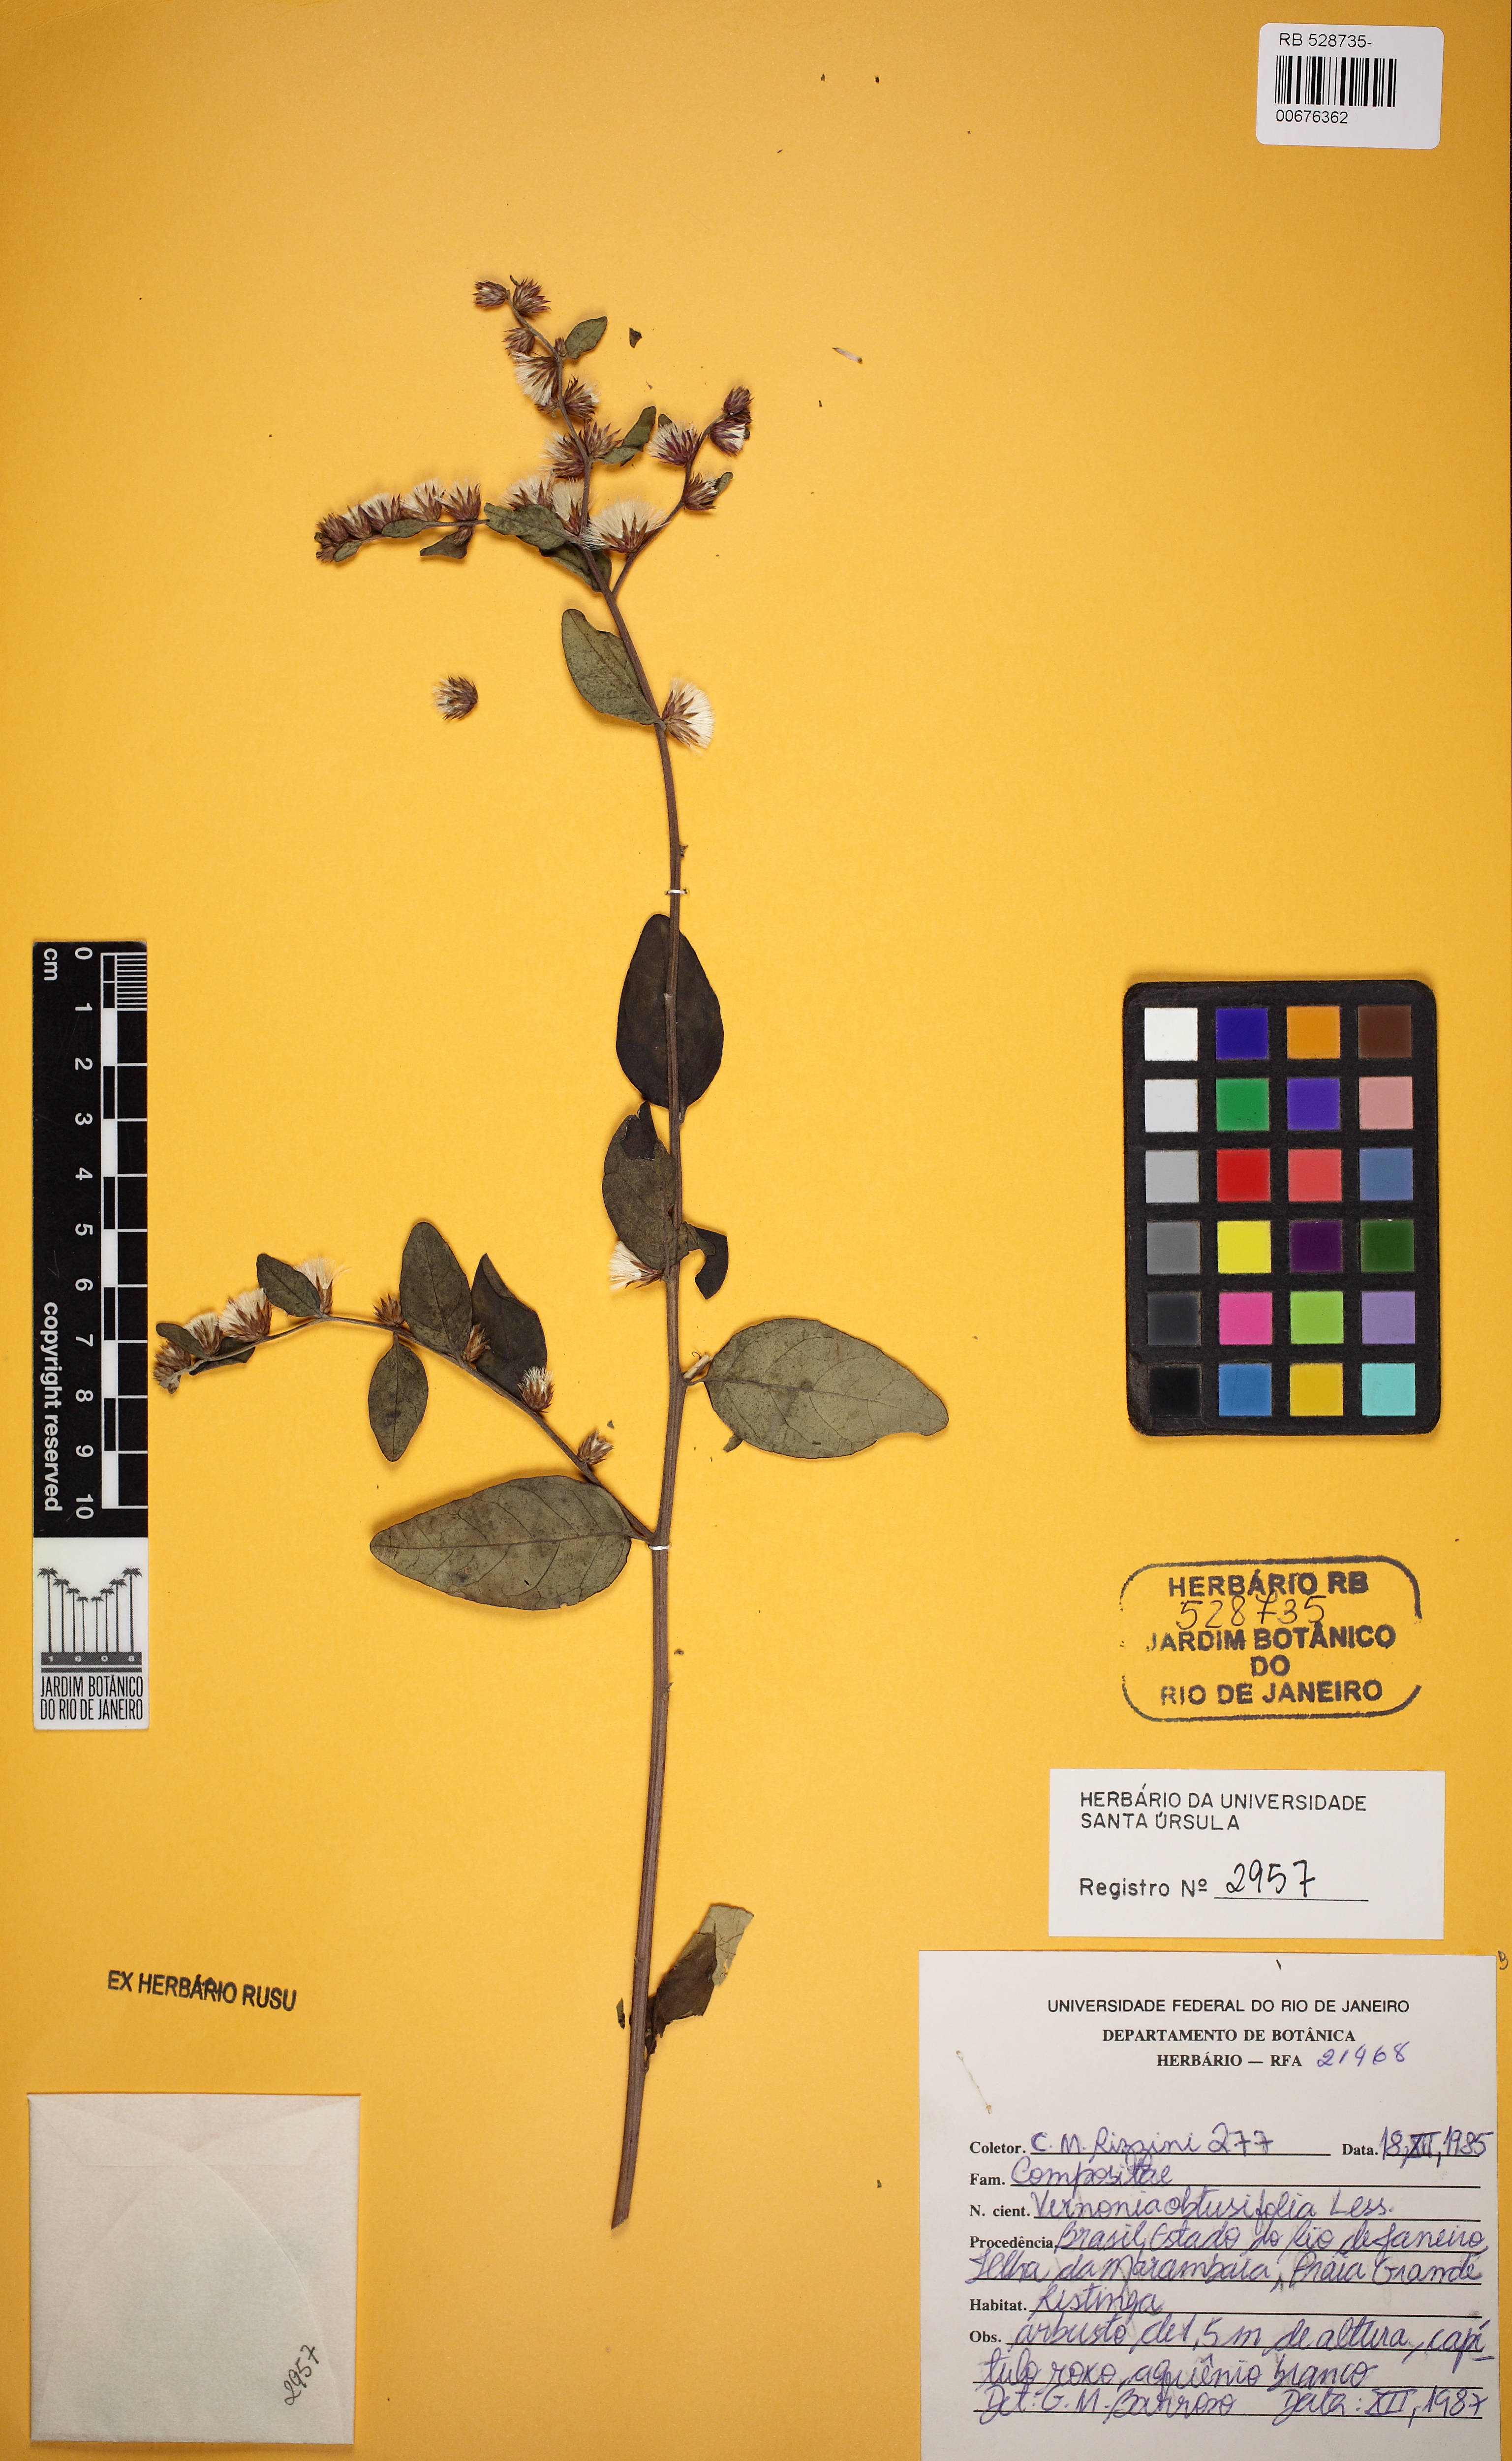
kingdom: Plantae
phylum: Tracheophyta
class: Magnoliopsida
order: Asterales
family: Asteraceae
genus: Lepidaploa
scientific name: Lepidaploa obtusifolia
